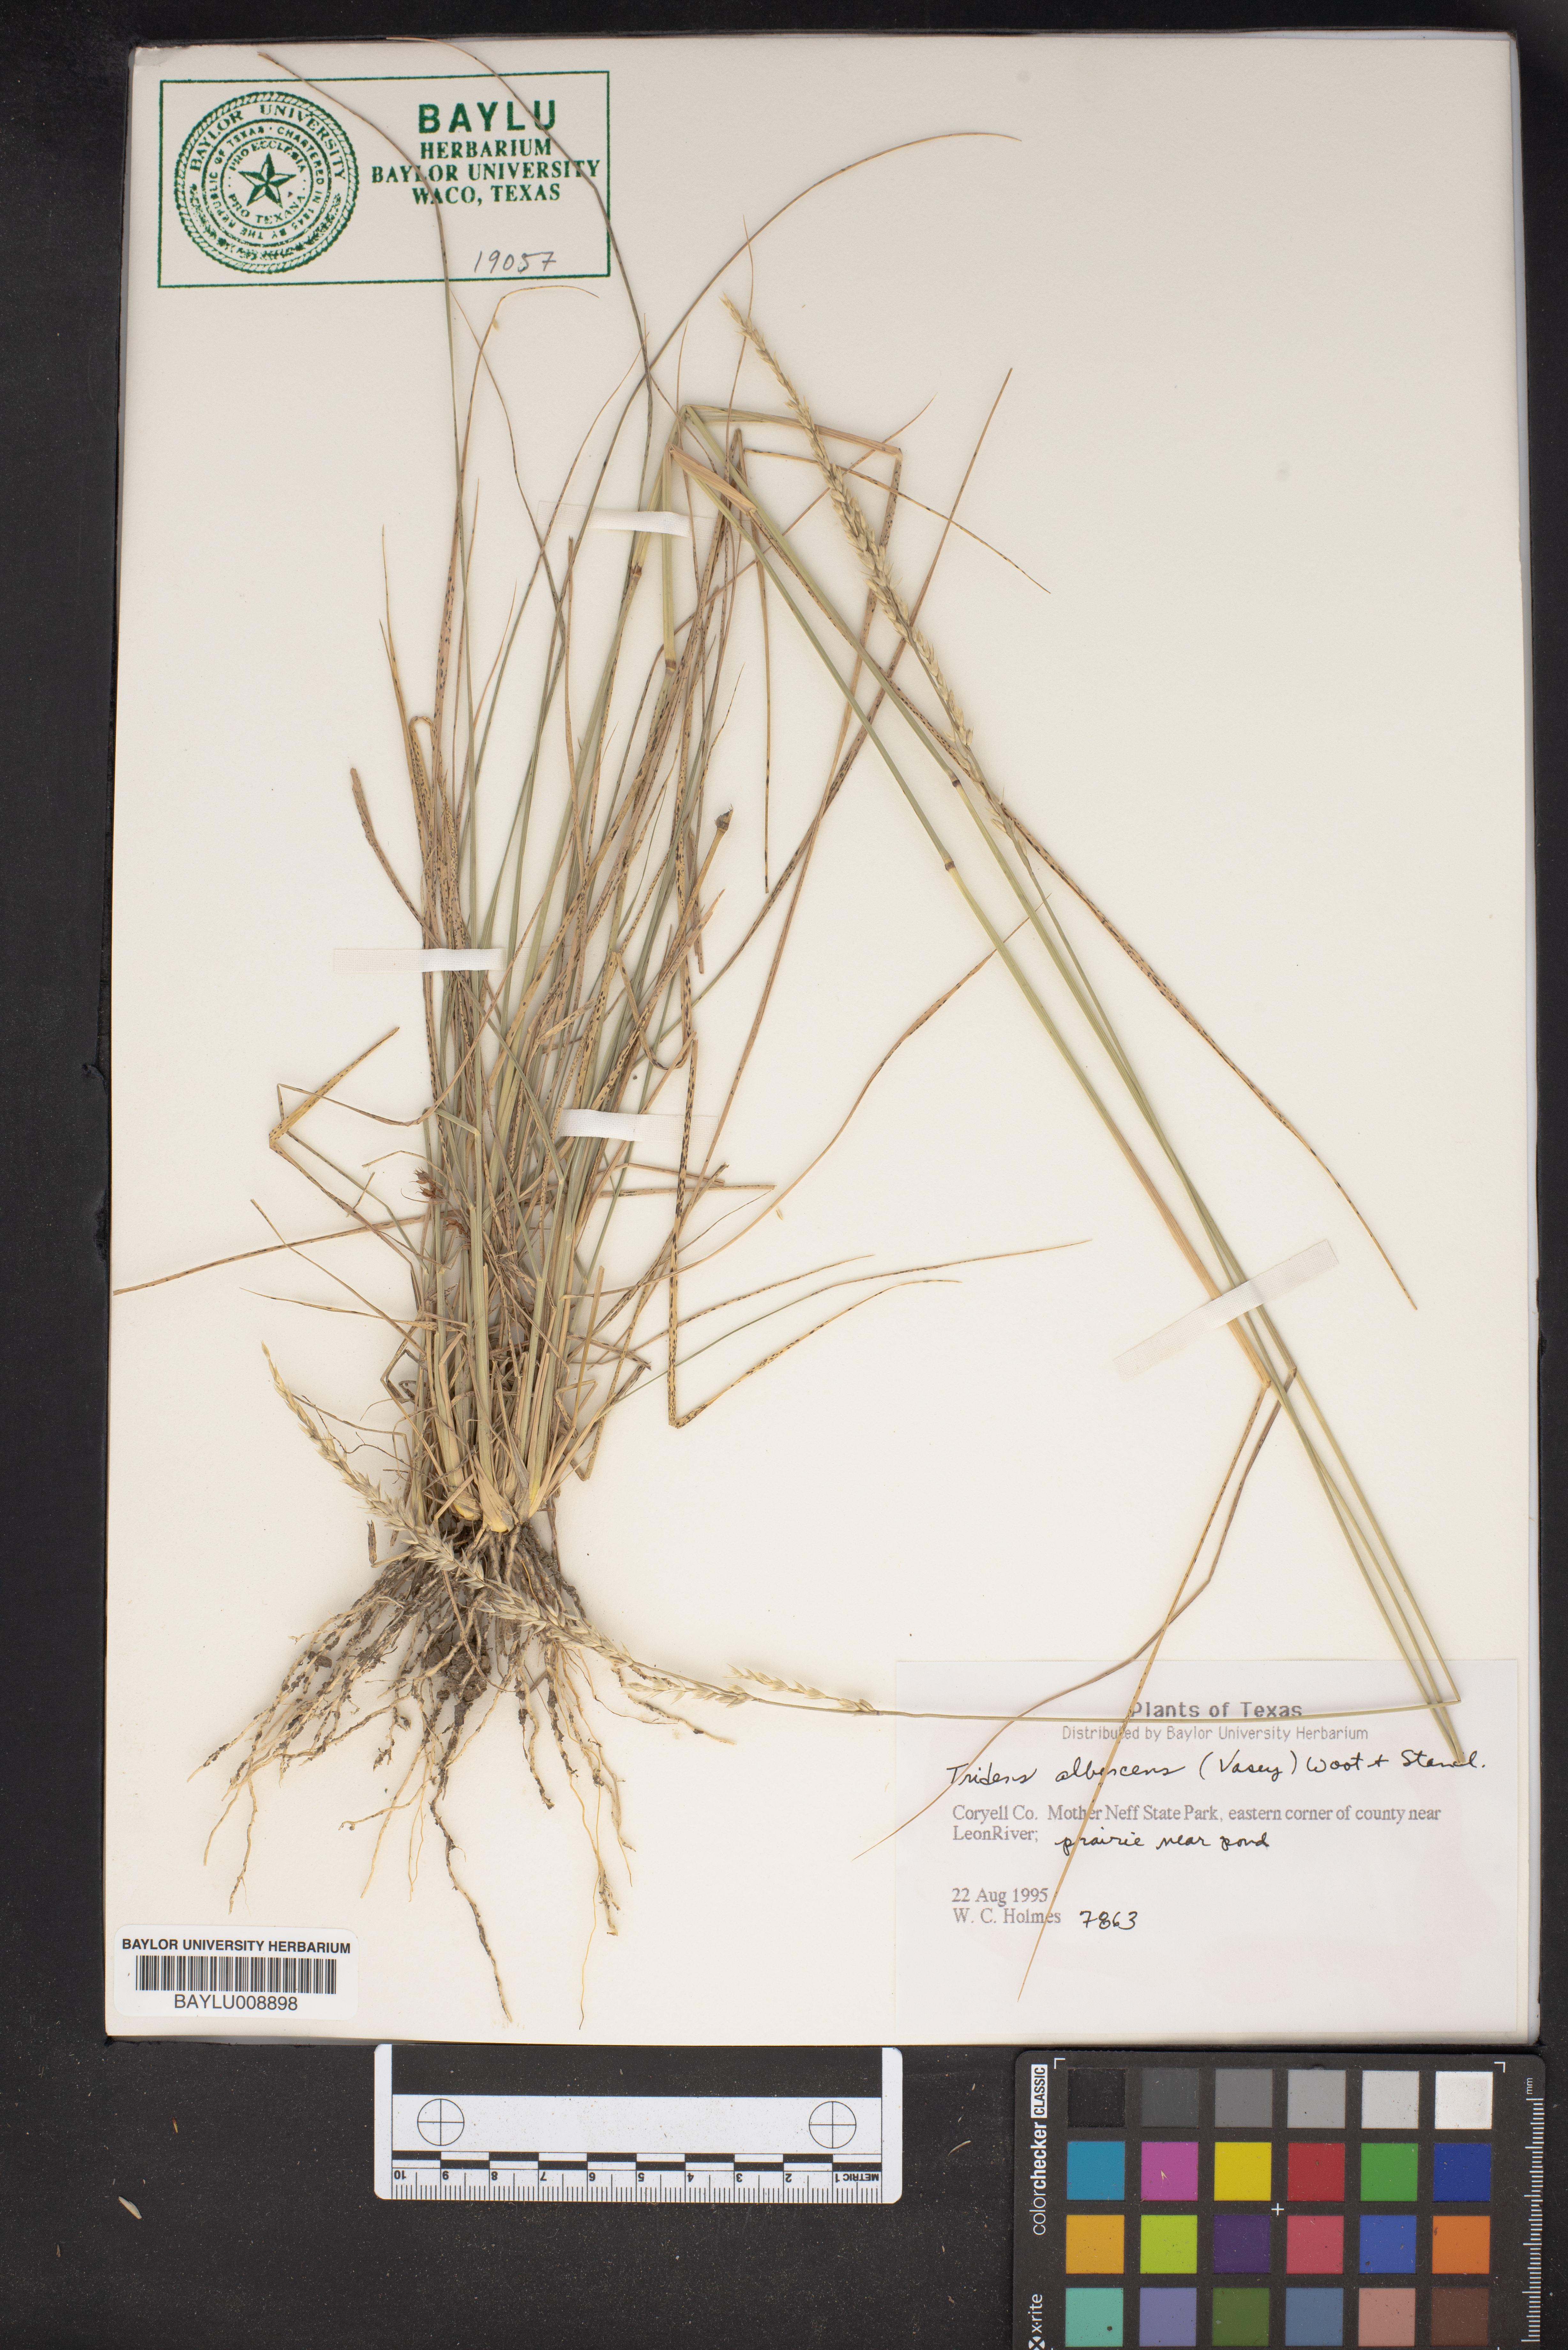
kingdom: Plantae
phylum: Tracheophyta
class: Liliopsida
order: Poales
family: Poaceae
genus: Tridens
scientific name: Tridens albescens
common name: White tridens
